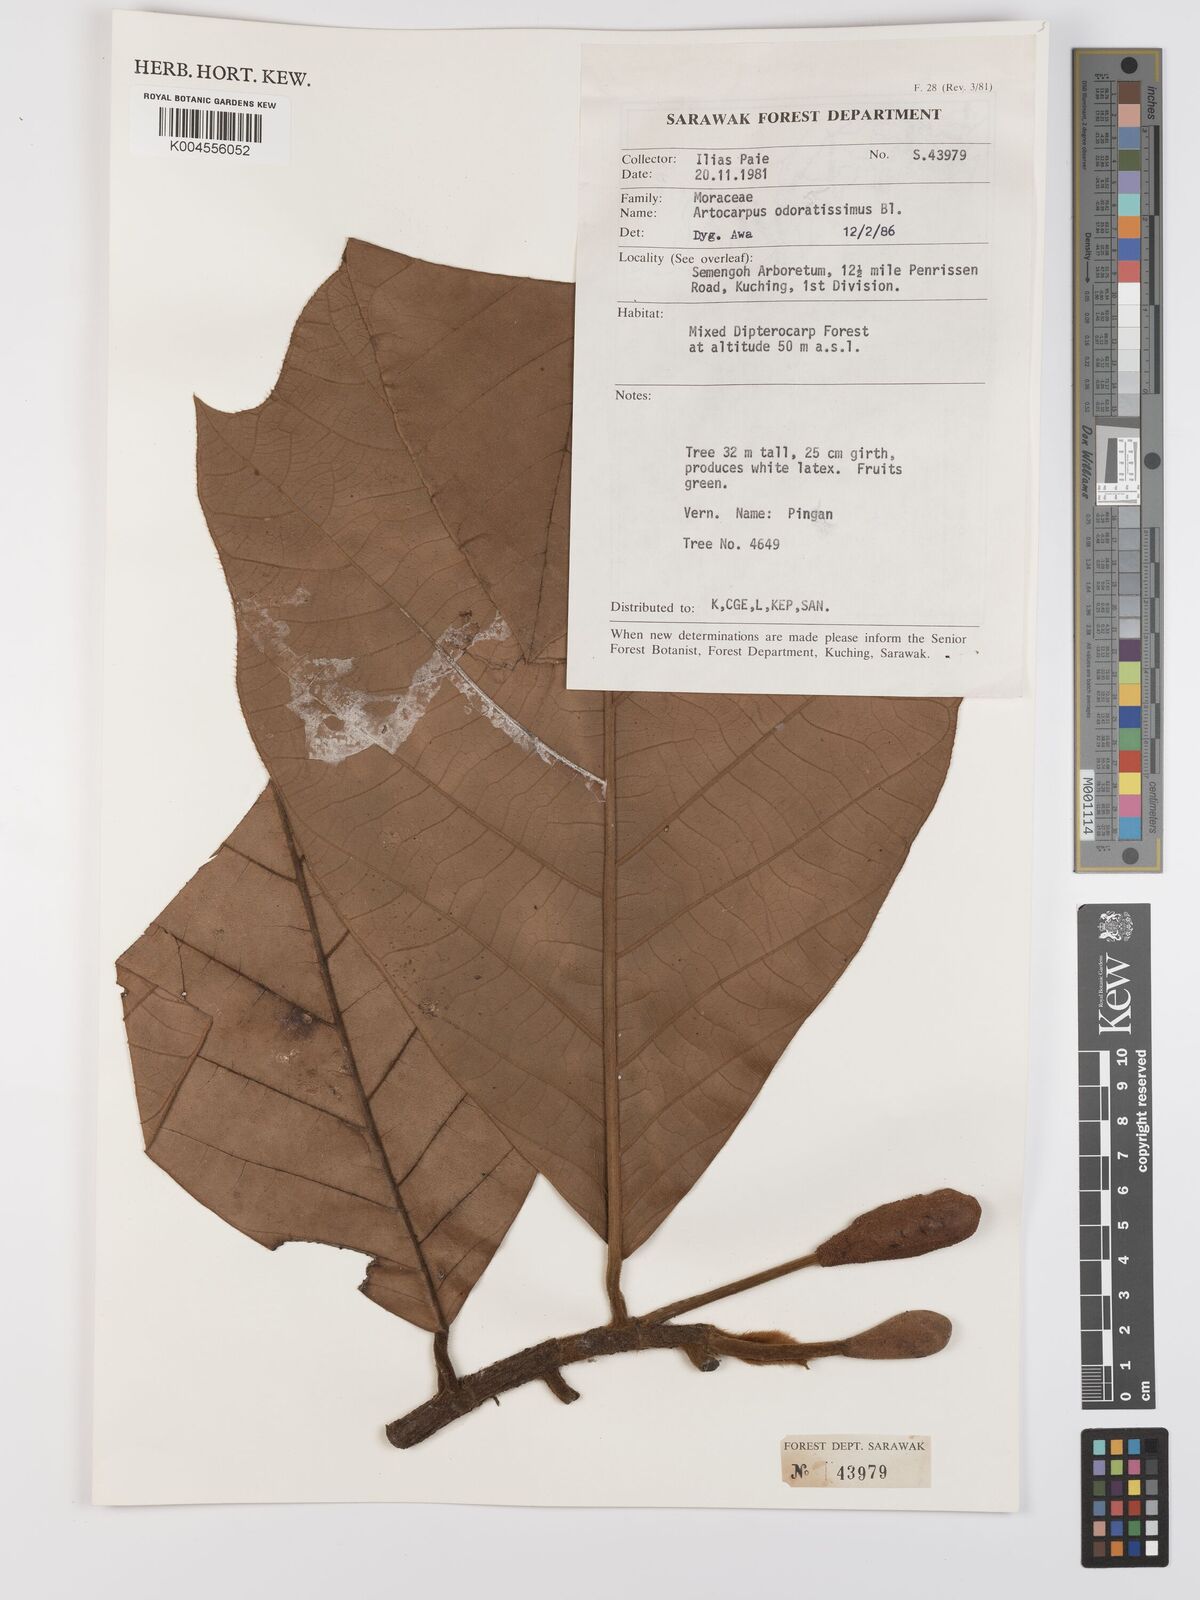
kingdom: Plantae
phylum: Tracheophyta
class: Magnoliopsida
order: Rosales
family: Moraceae
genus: Artocarpus
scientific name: Artocarpus odoratissimus
